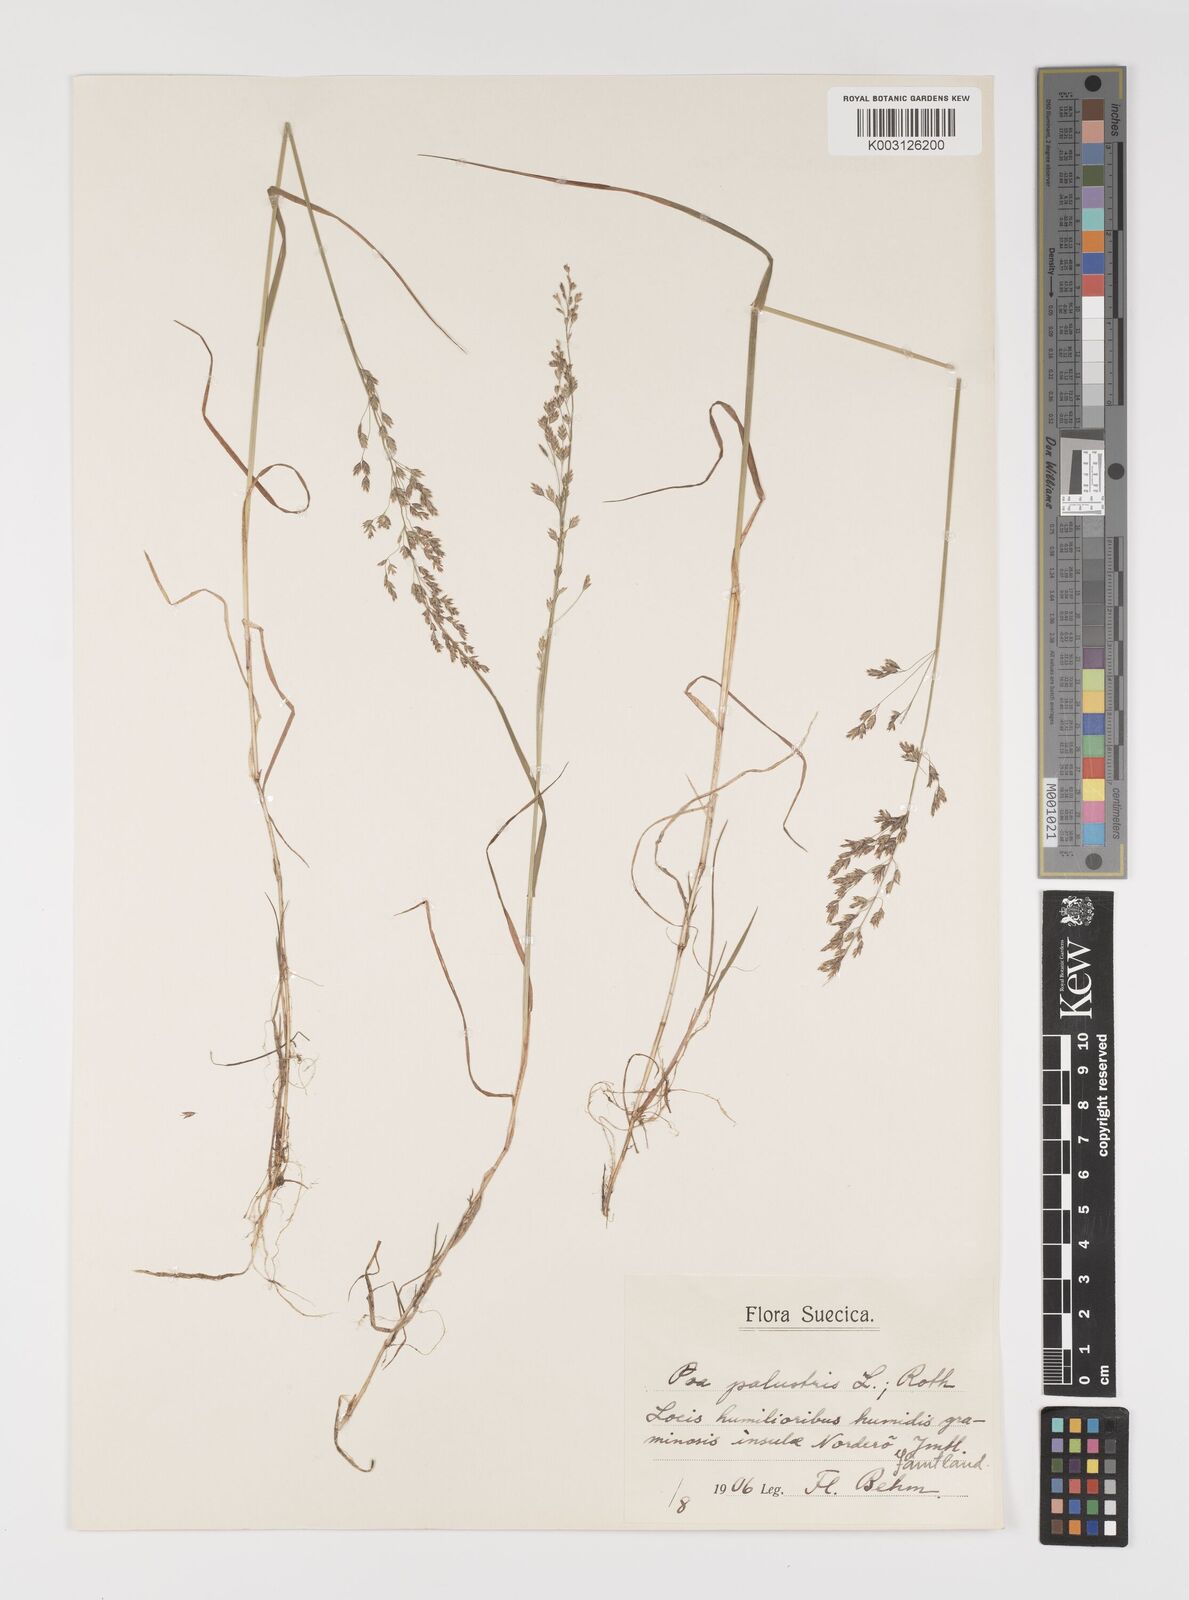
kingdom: Plantae
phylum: Tracheophyta
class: Liliopsida
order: Poales
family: Poaceae
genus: Poa
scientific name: Poa palustris
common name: Swamp meadow-grass
